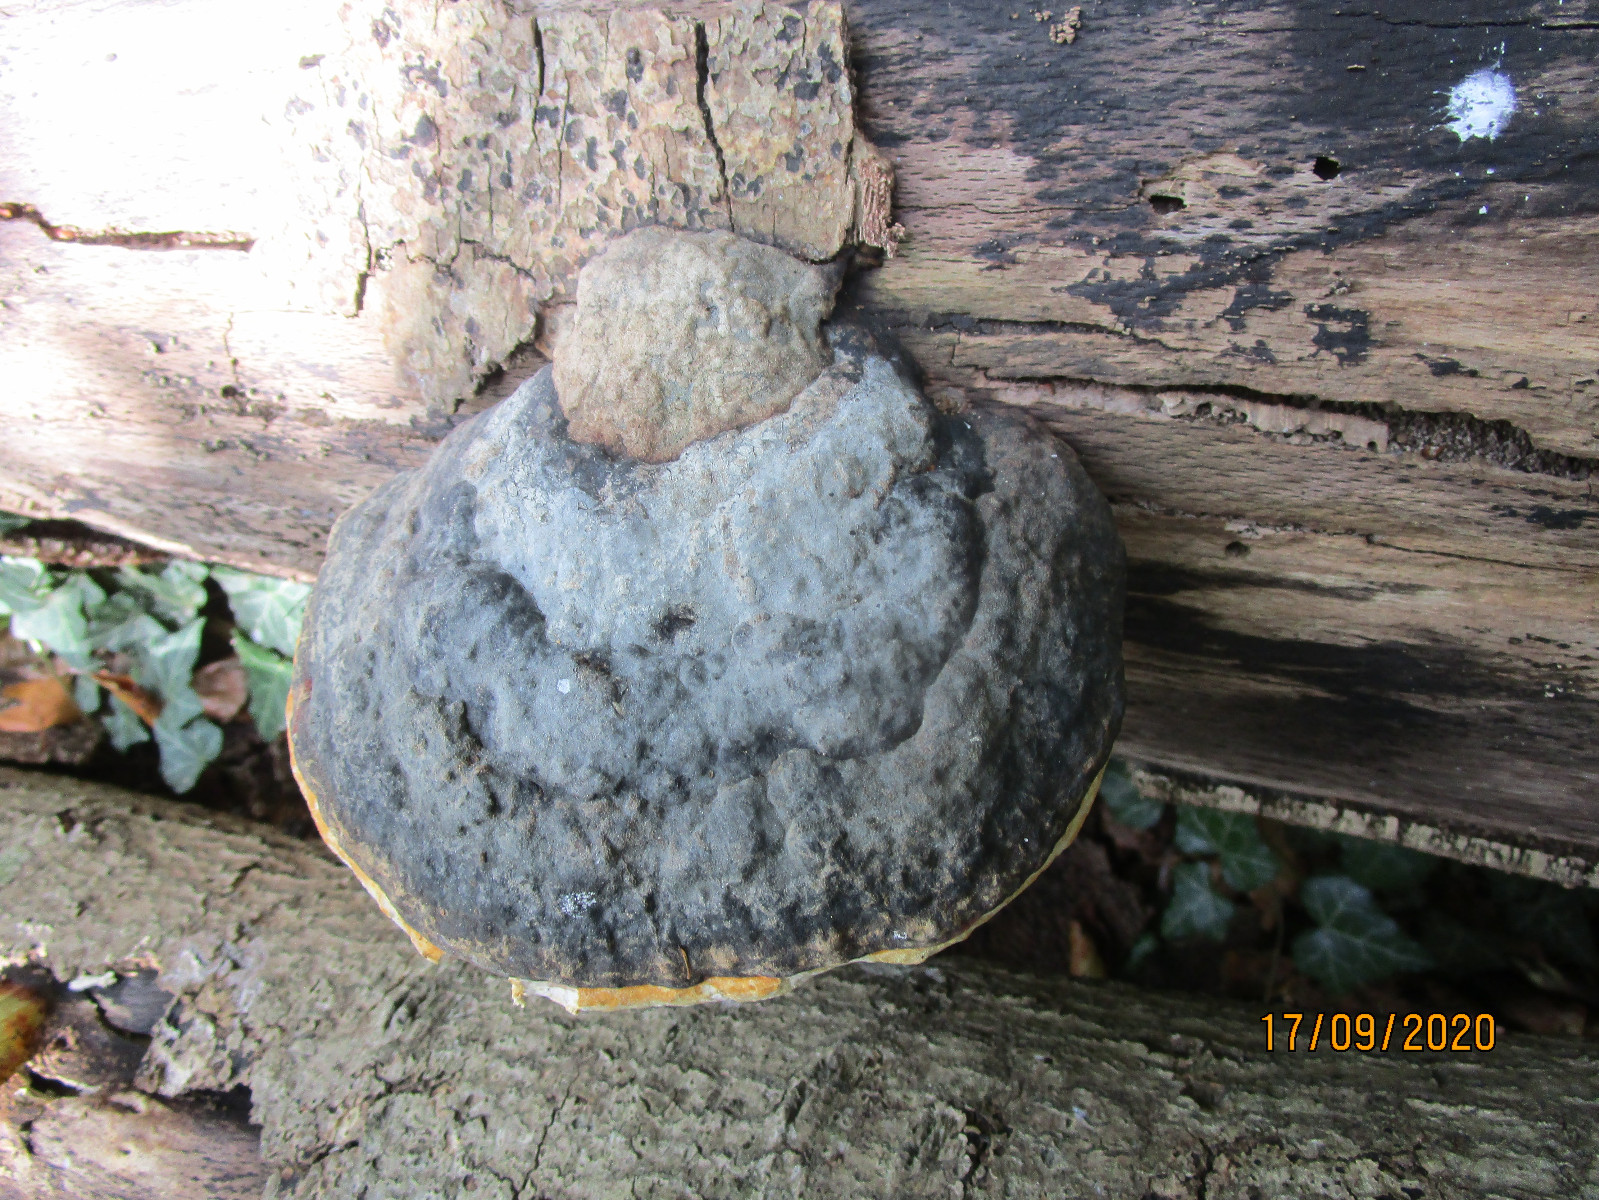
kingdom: Fungi
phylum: Basidiomycota
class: Agaricomycetes
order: Polyporales
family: Fomitopsidaceae
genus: Fomitopsis
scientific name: Fomitopsis pinicola
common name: randbæltet hovporesvamp
